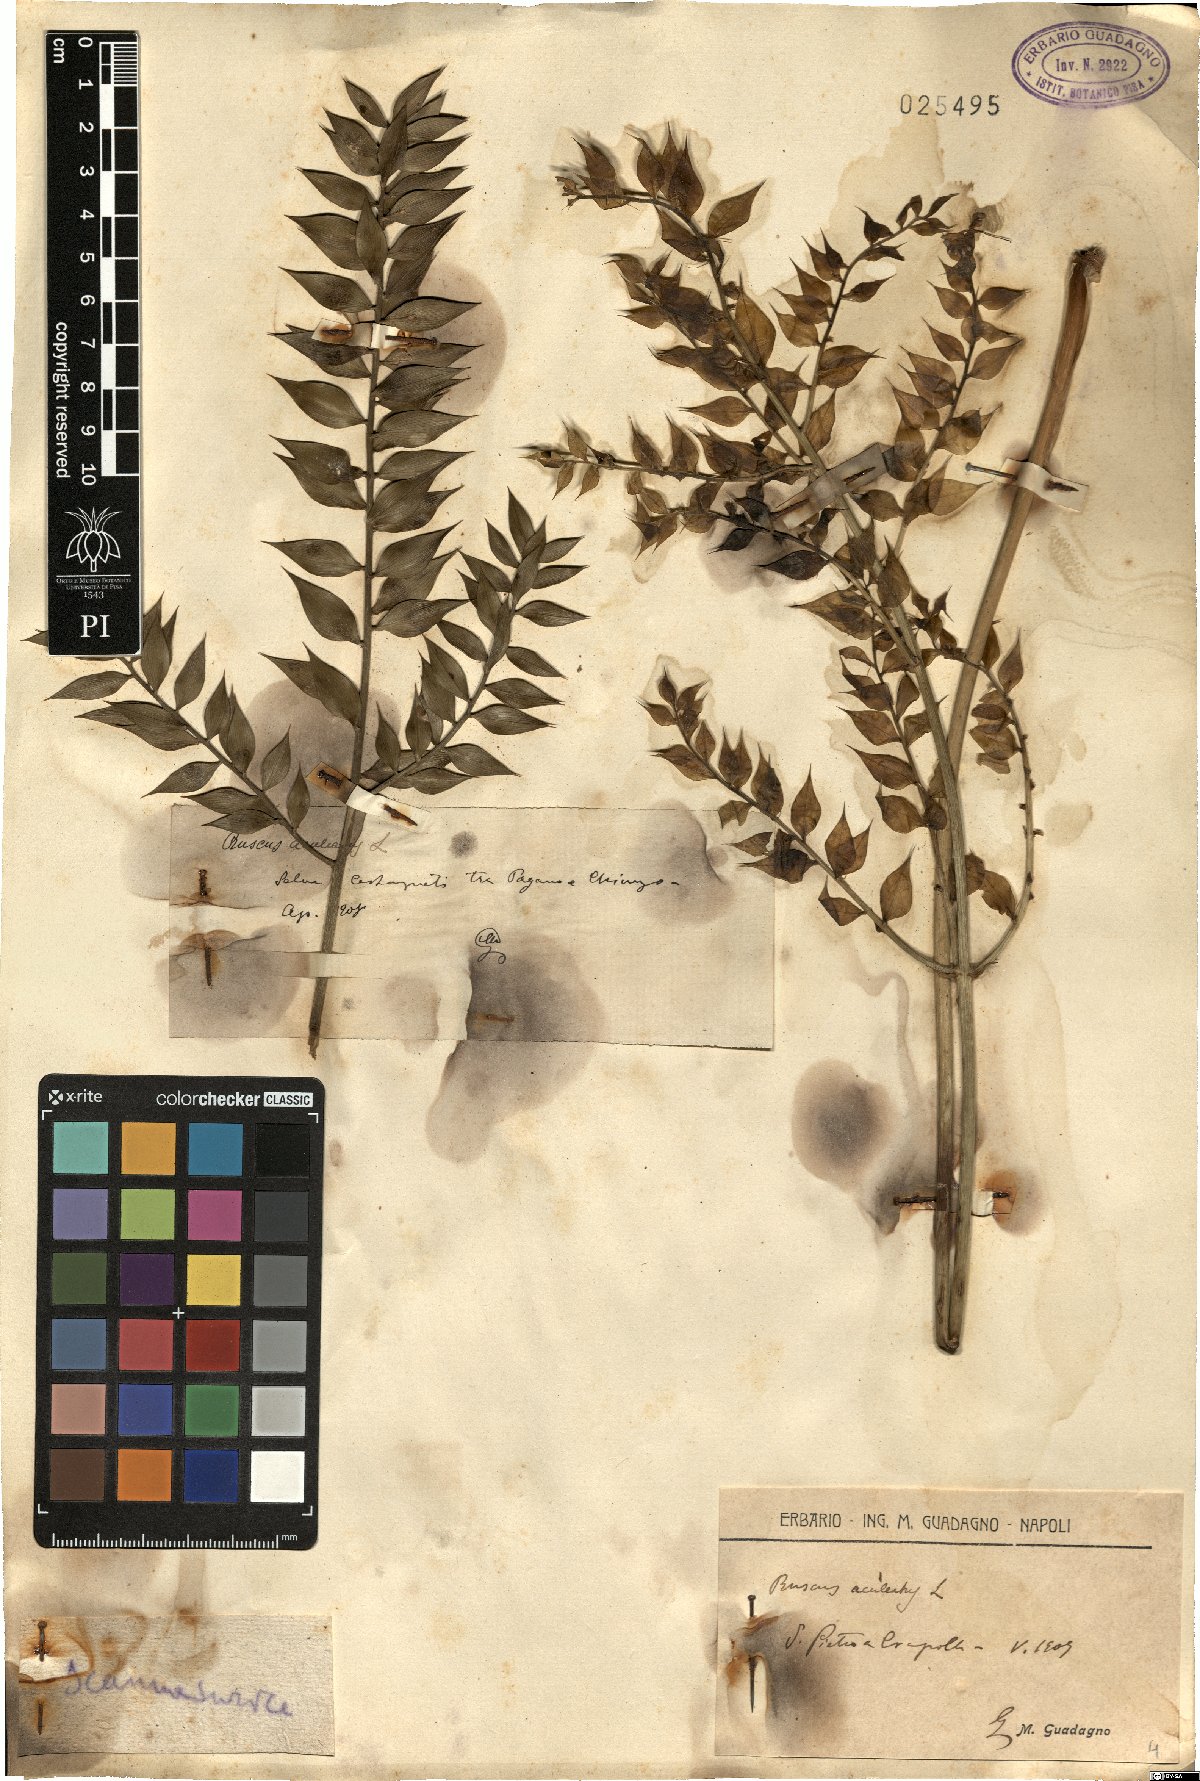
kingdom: Plantae
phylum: Tracheophyta
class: Liliopsida
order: Asparagales
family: Asparagaceae
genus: Ruscus
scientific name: Ruscus aculeatus
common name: Butcher's-broom
